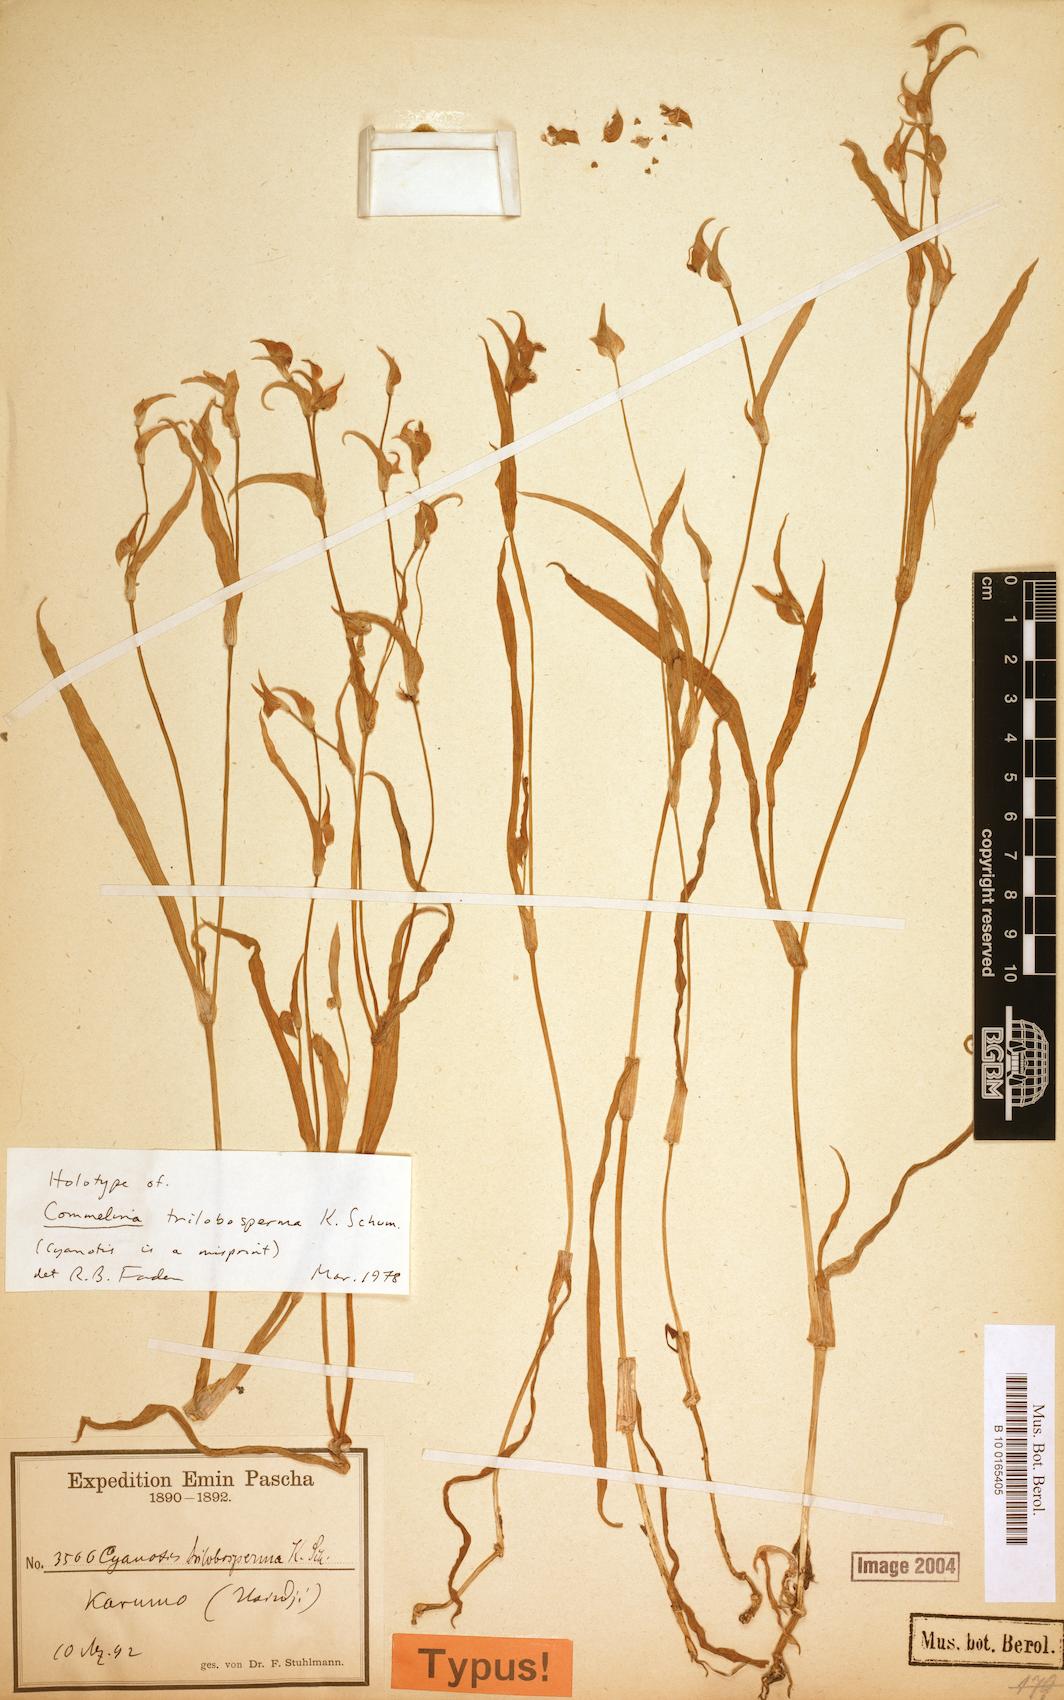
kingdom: Plantae
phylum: Tracheophyta
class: Liliopsida
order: Commelinales
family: Commelinaceae
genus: Commelina
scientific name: Commelina trilobosperma
